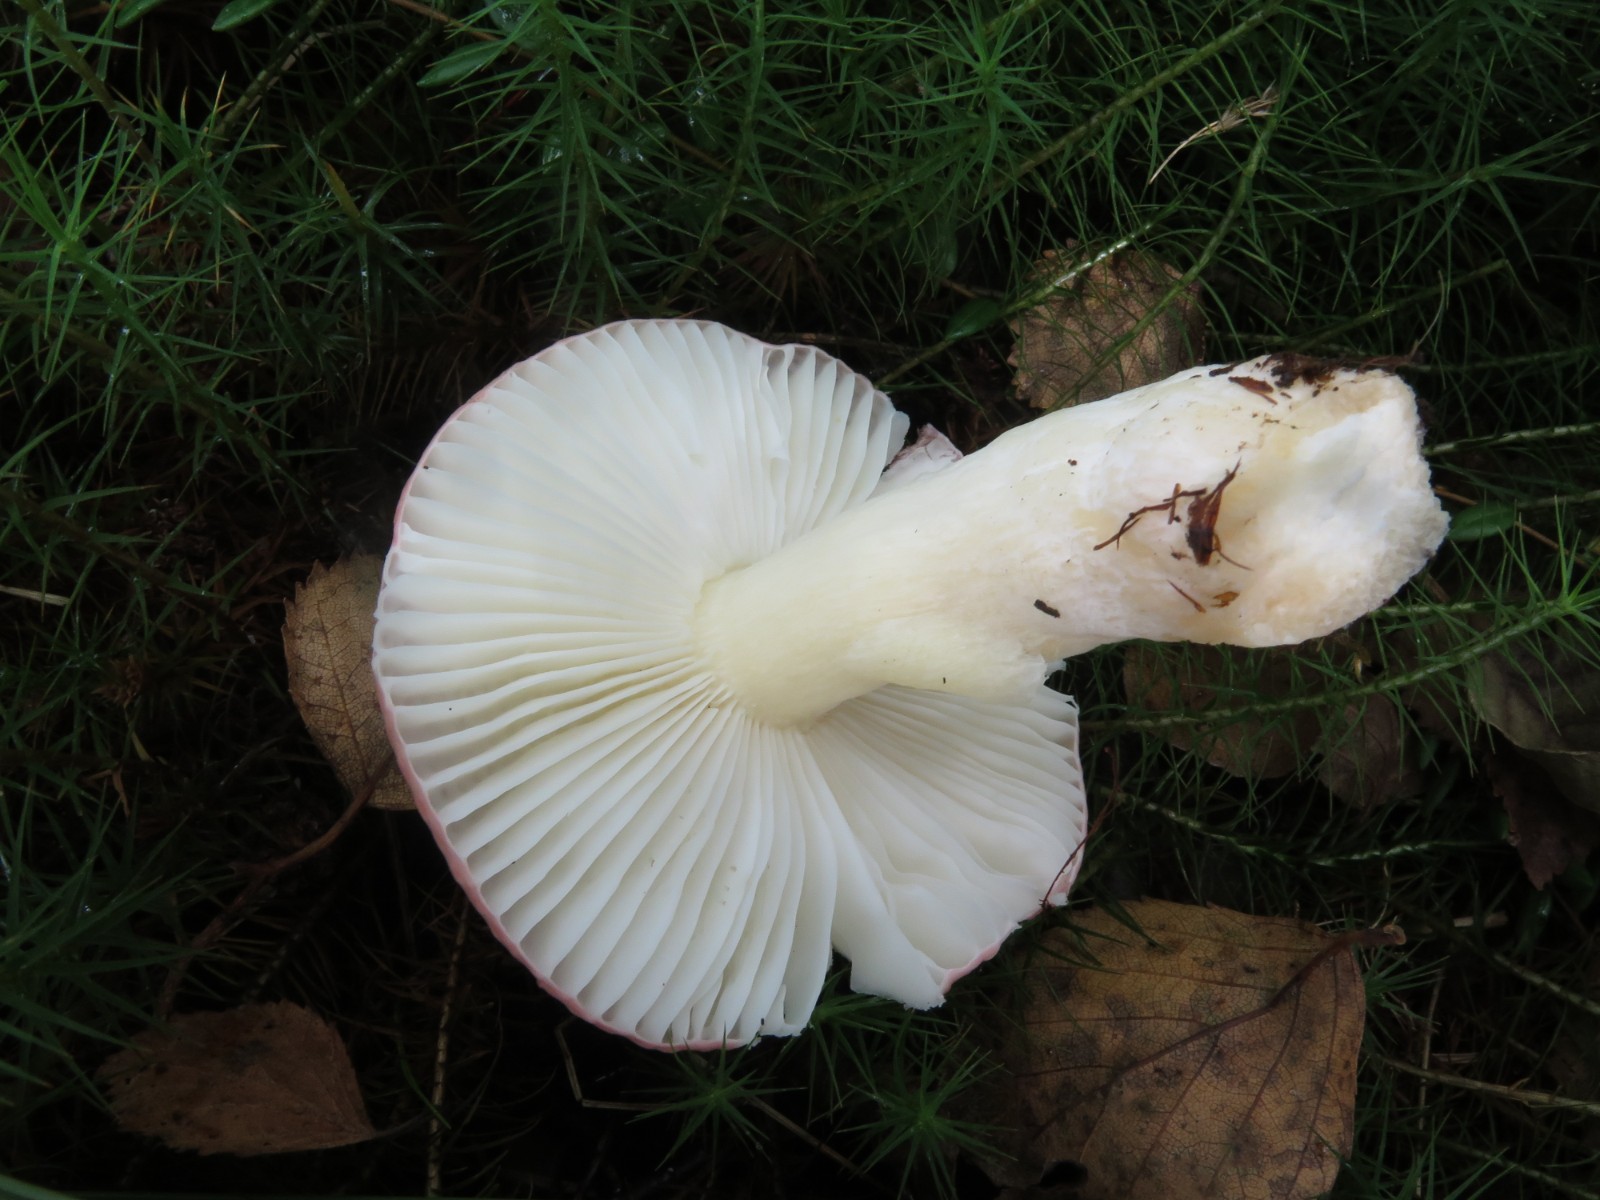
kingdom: Fungi
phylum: Basidiomycota
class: Agaricomycetes
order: Russulales
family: Russulaceae
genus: Russula
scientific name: Russula betularum
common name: bleg gift-skørhat
